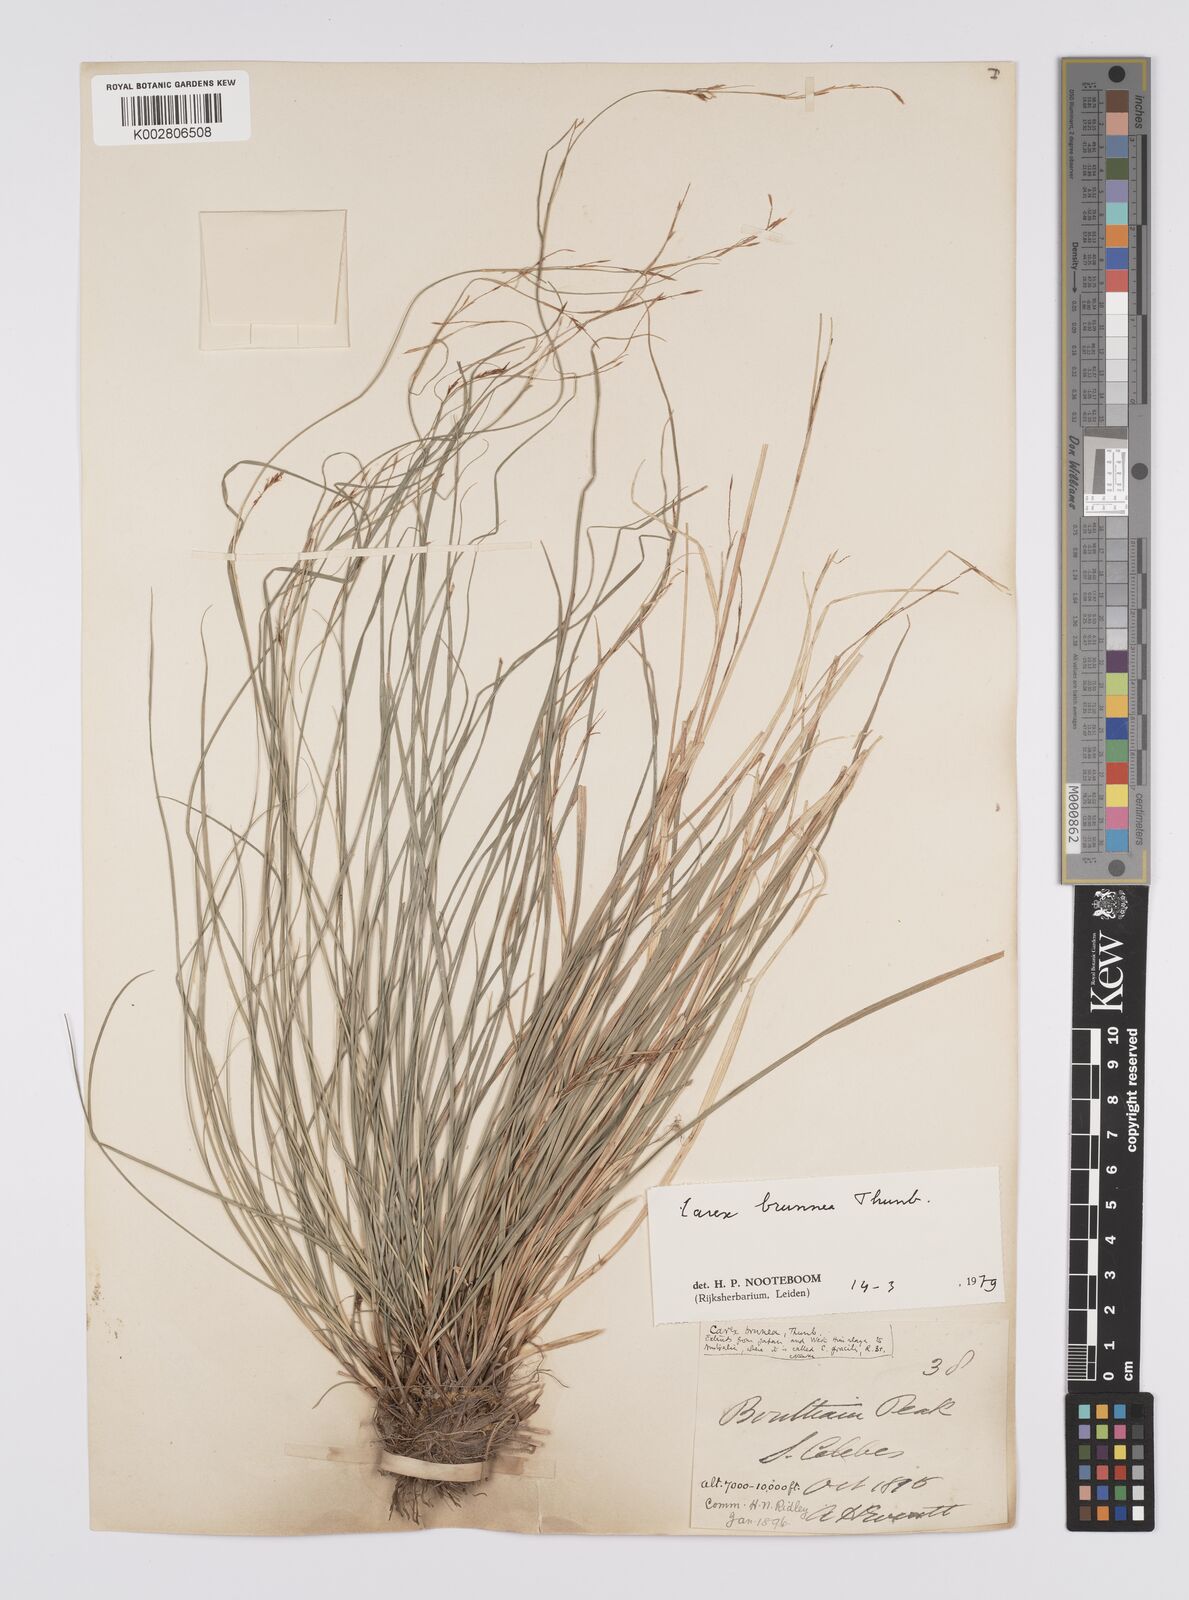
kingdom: Plantae
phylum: Tracheophyta
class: Liliopsida
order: Poales
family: Cyperaceae
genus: Carex
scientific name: Carex brunnea
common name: Greater brown sedge
